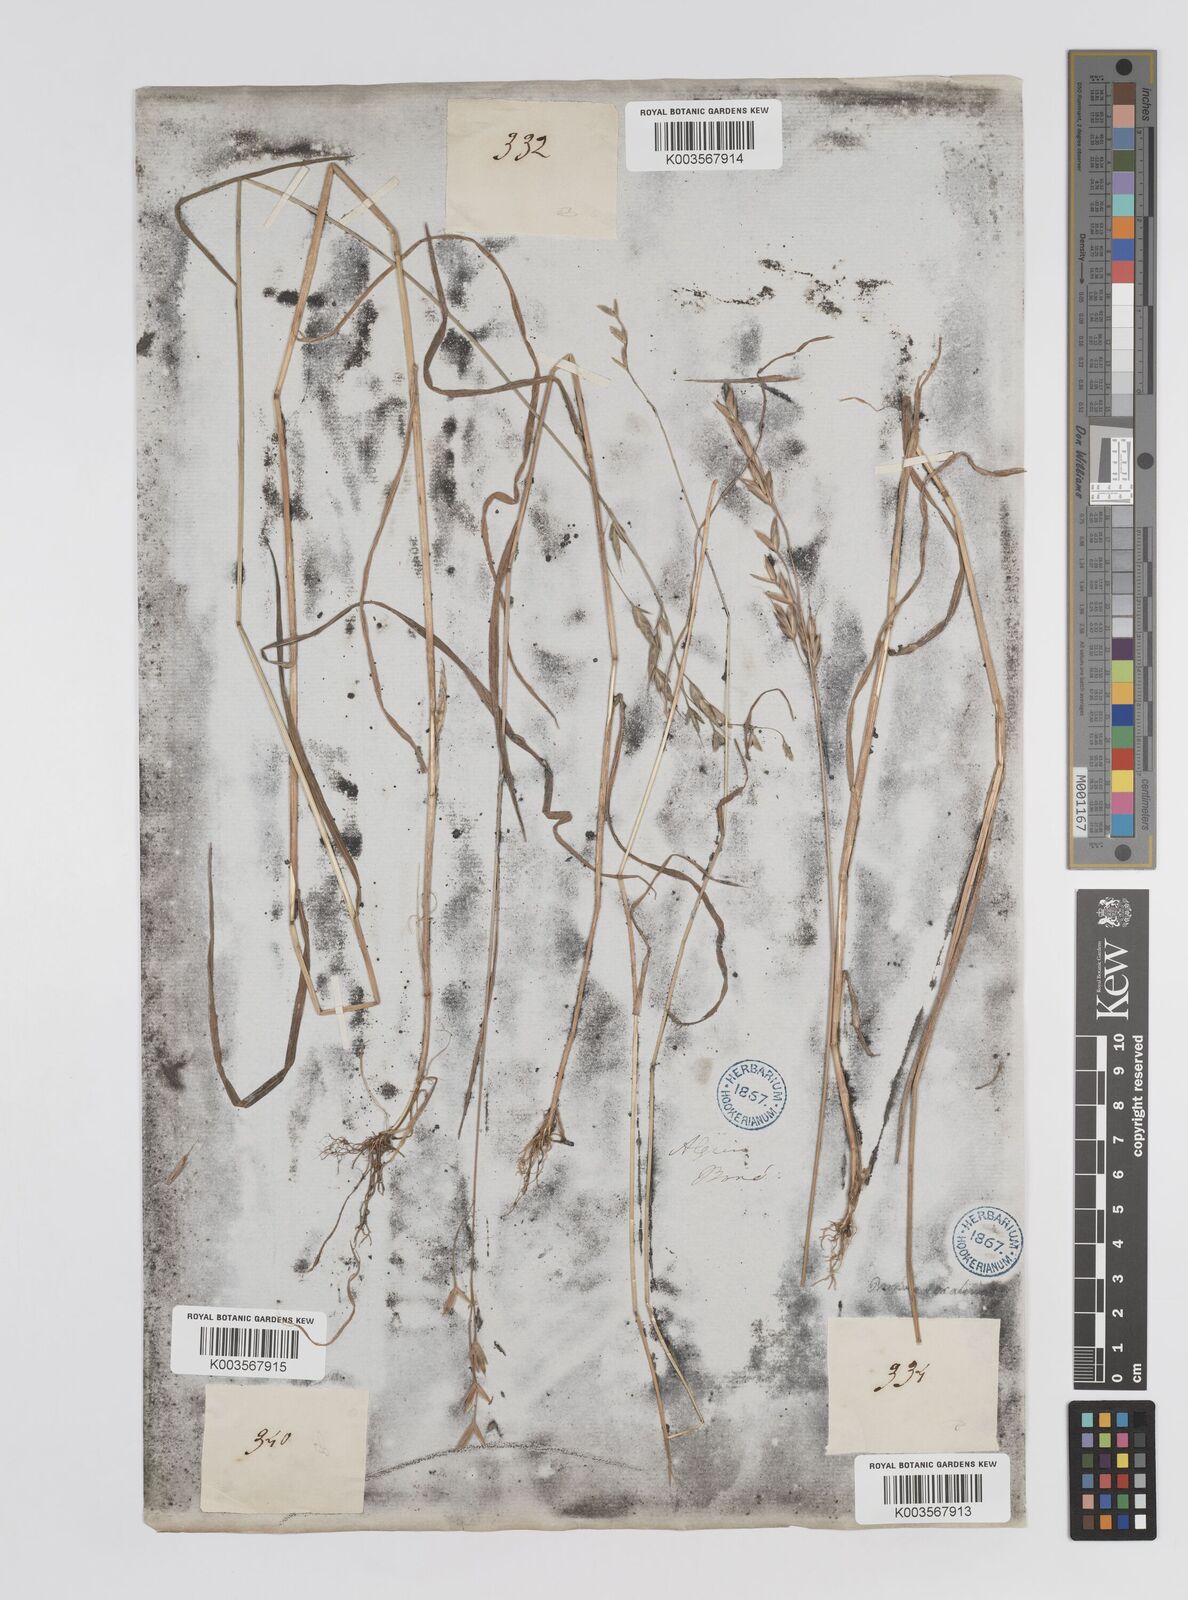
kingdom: Plantae
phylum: Tracheophyta
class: Liliopsida
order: Poales
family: Poaceae
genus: Bromus
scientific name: Bromus secalinus
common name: Rye brome
